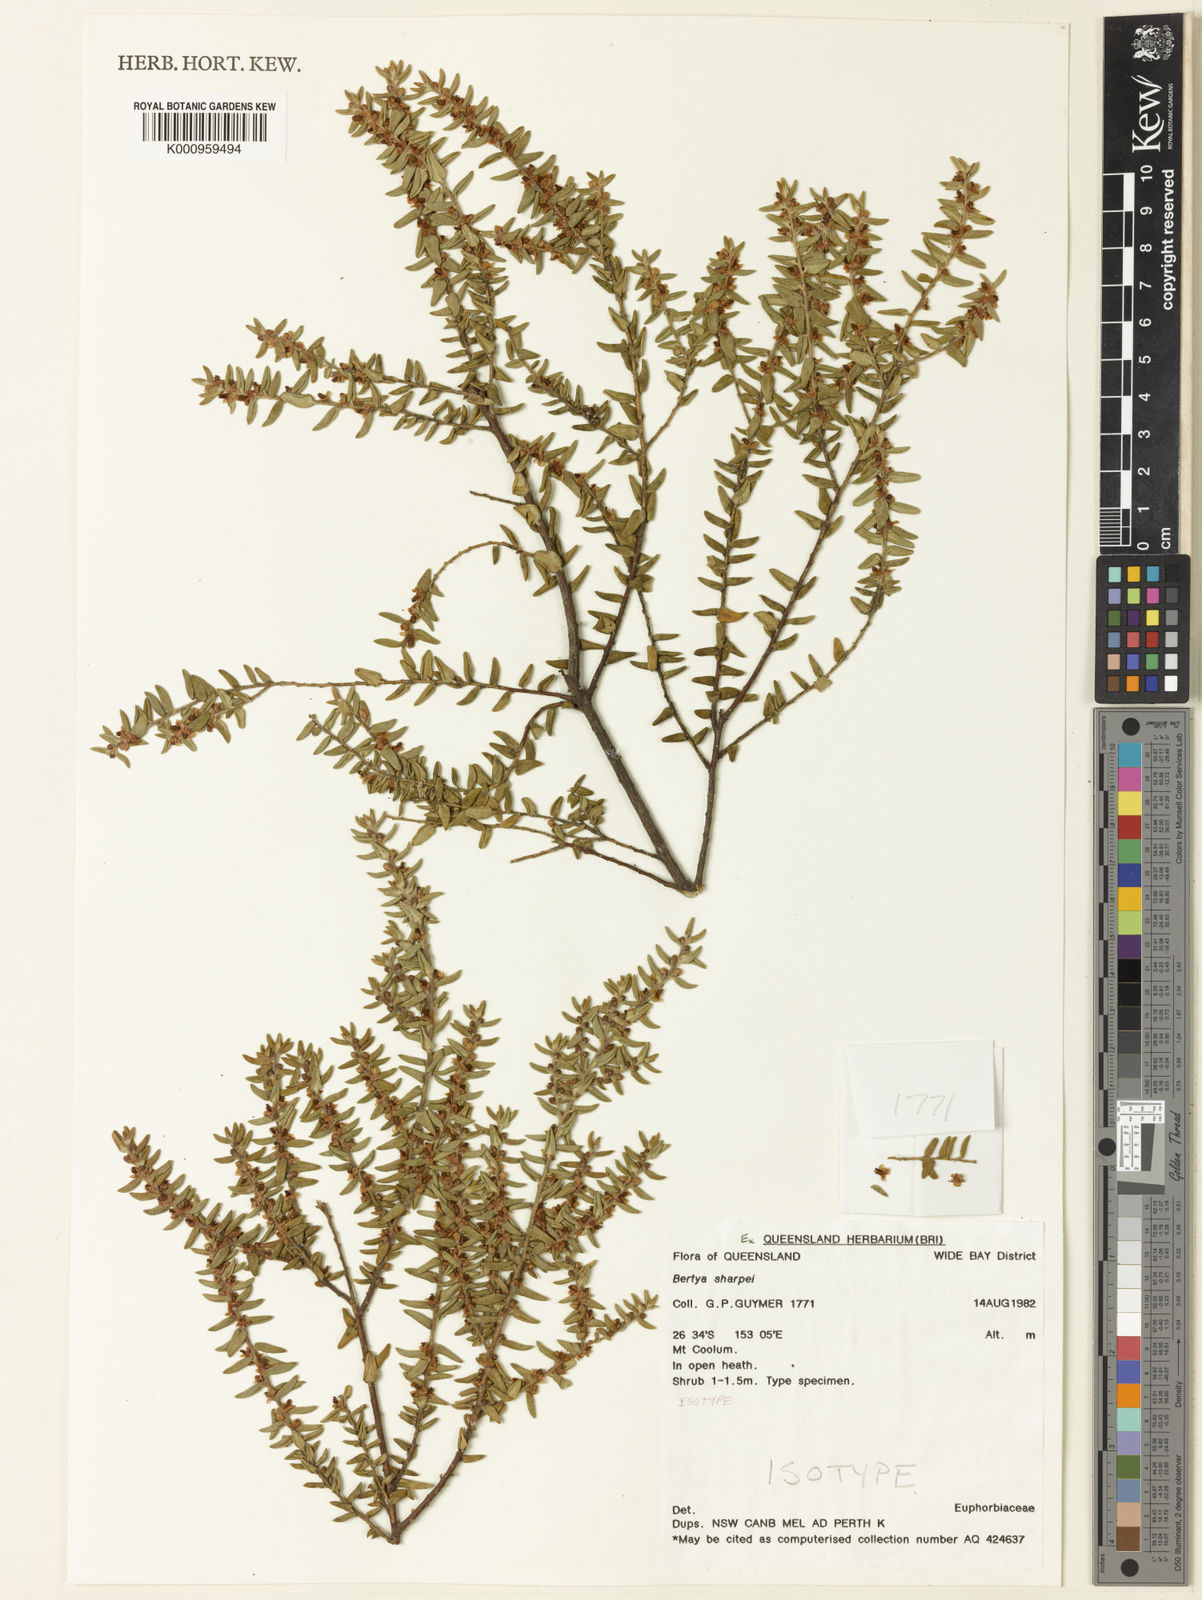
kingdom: Plantae
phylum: Tracheophyta
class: Magnoliopsida
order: Malpighiales
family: Euphorbiaceae
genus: Bertya
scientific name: Bertya sharpeana
